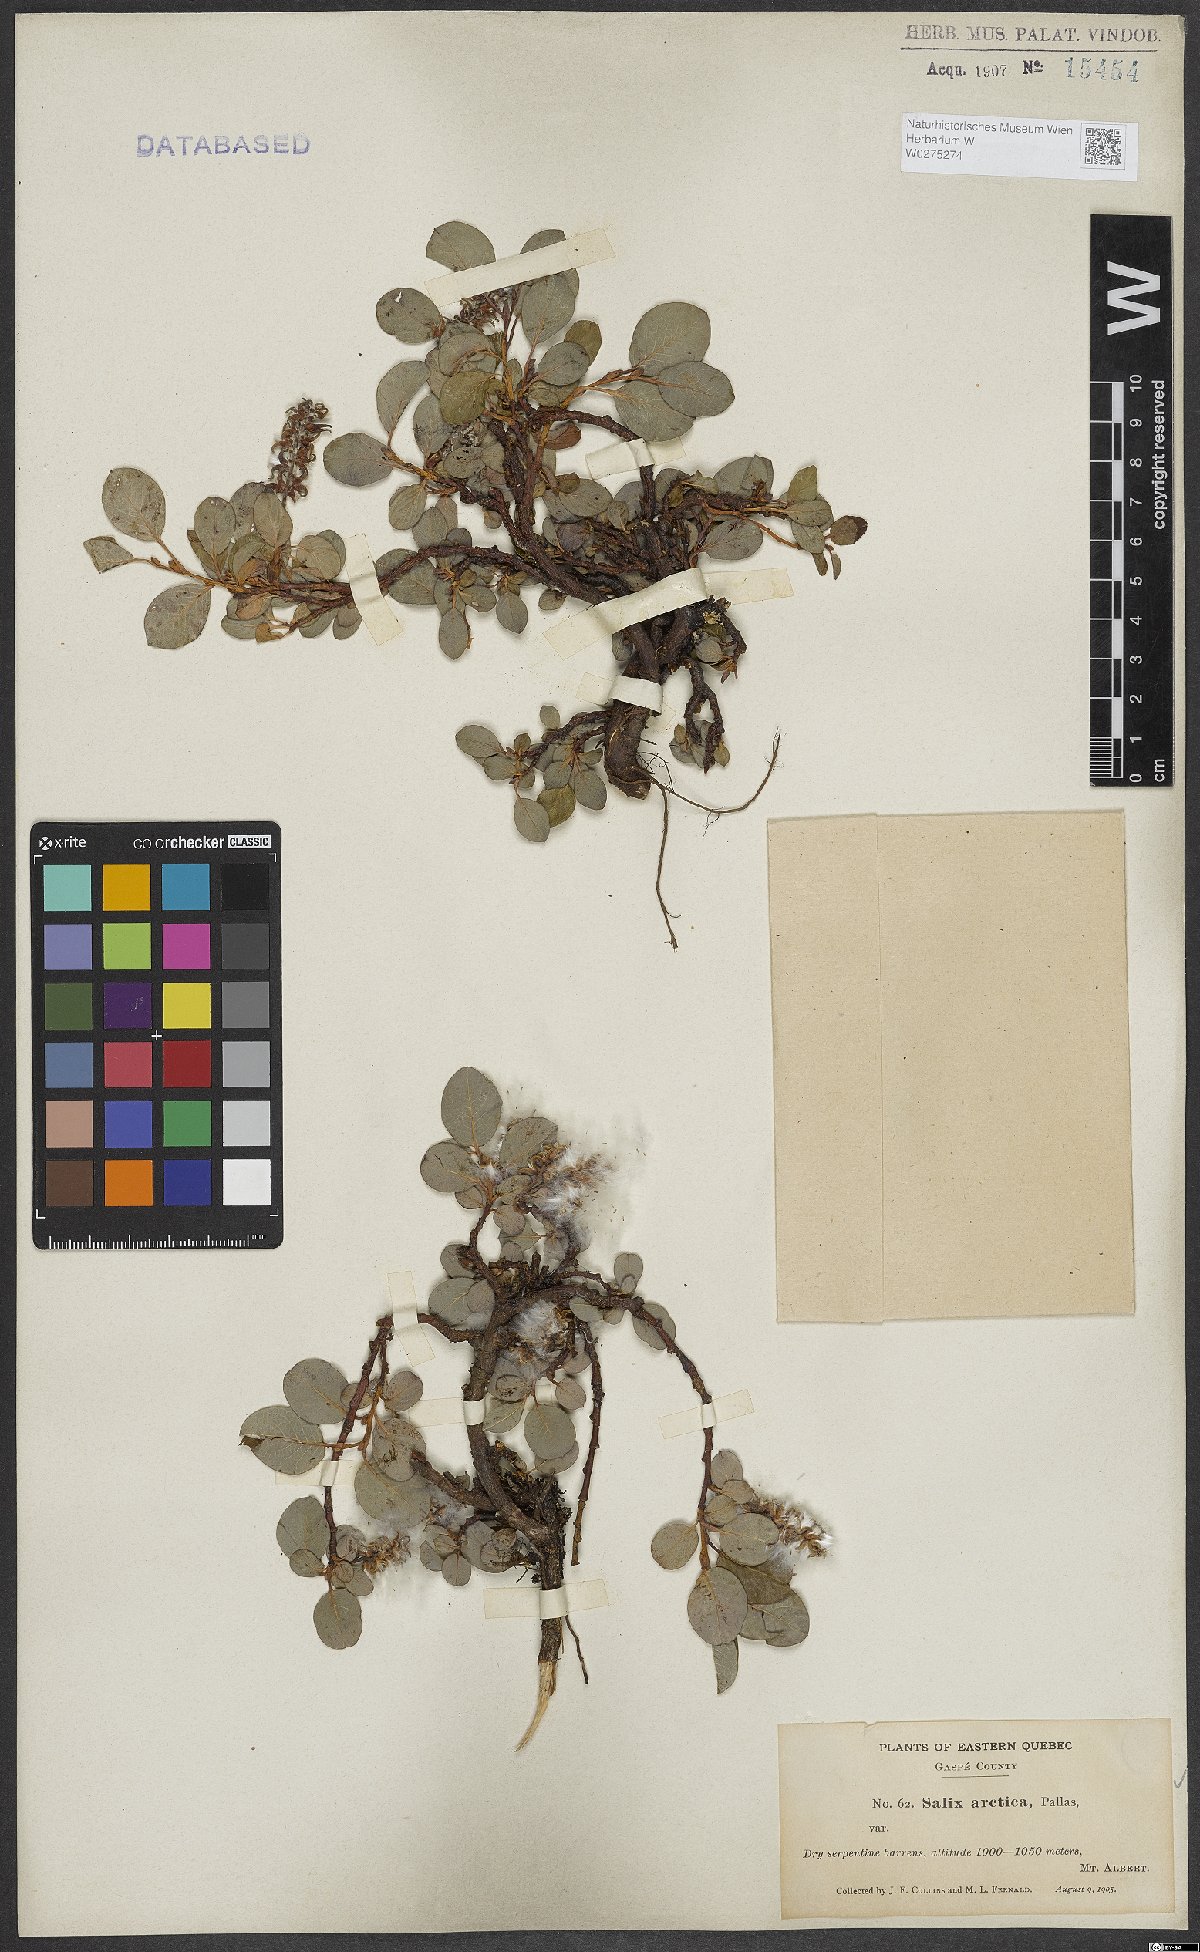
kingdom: Plantae
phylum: Tracheophyta
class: Magnoliopsida
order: Malpighiales
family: Salicaceae
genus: Salix
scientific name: Salix arctica
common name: Arctic willow
